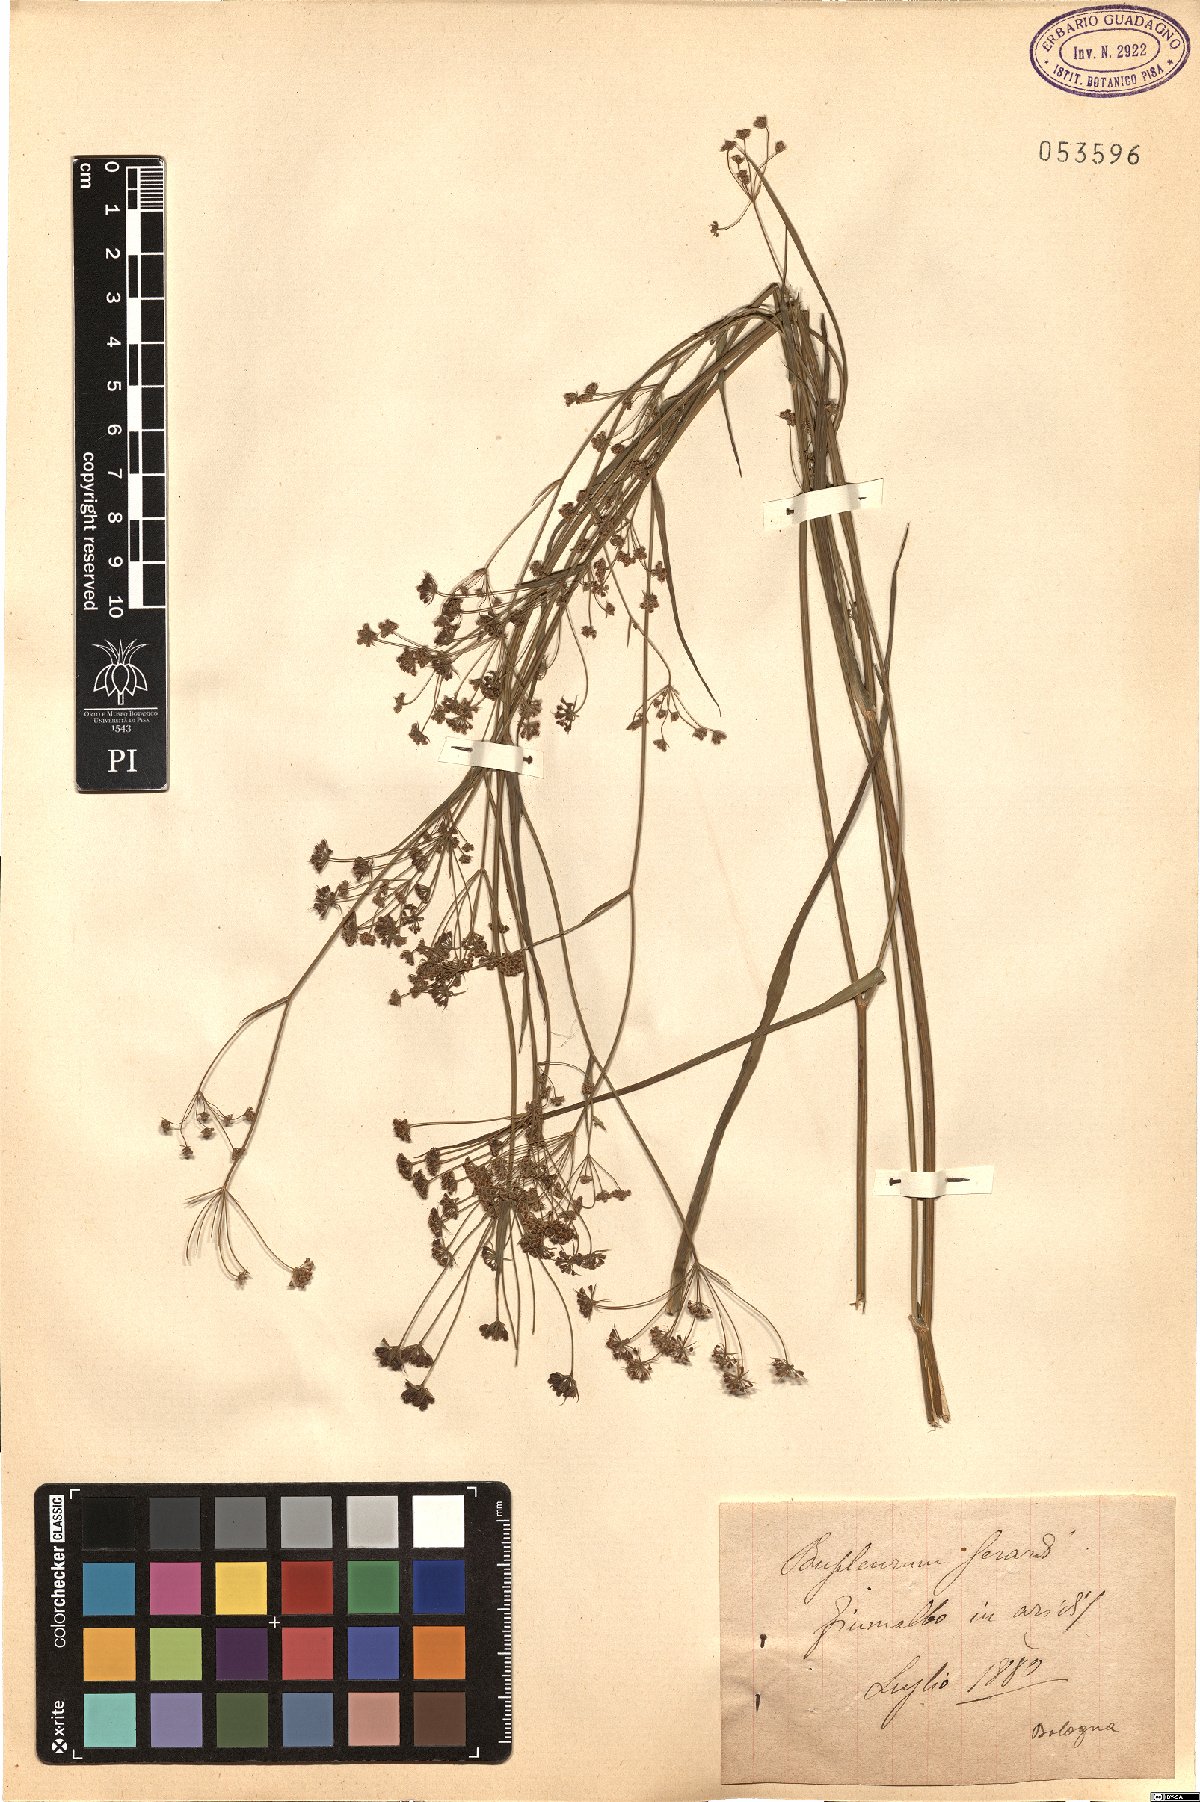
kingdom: Plantae
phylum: Tracheophyta
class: Magnoliopsida
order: Apiales
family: Apiaceae
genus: Bupleurum
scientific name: Bupleurum gerardi
